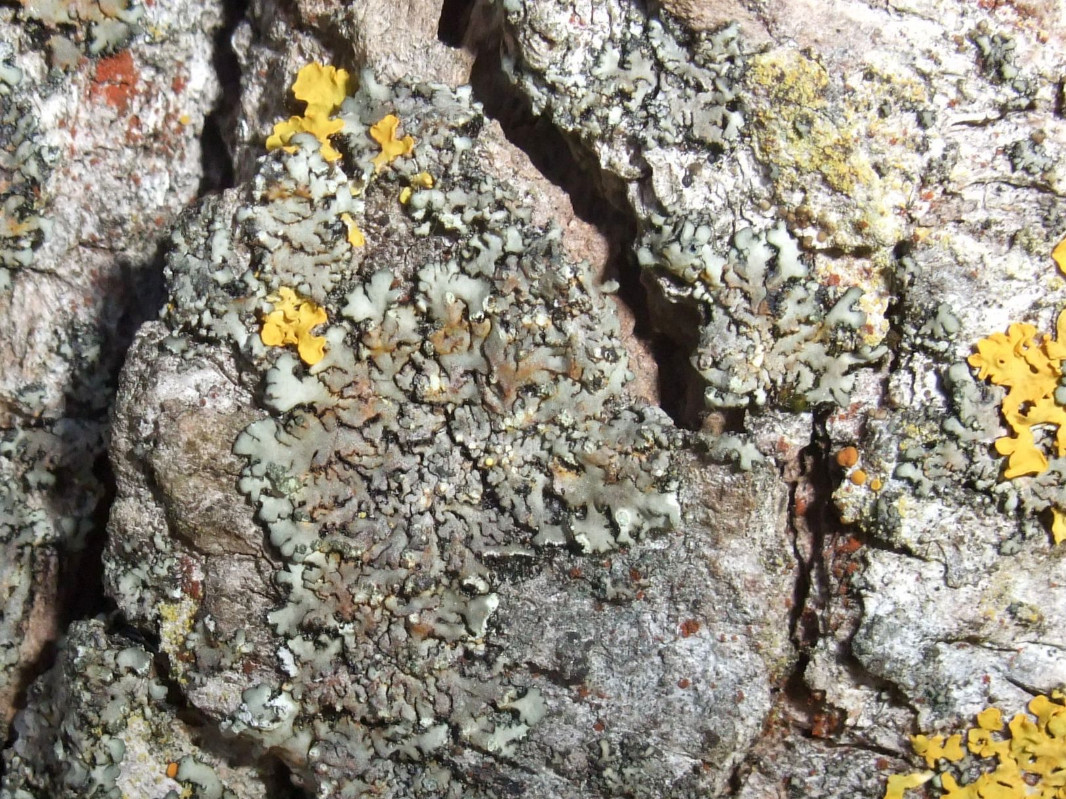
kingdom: Fungi
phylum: Ascomycota
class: Lecanoromycetes
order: Caliciales
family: Physciaceae
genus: Phaeophyscia
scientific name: Phaeophyscia orbicularis
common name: grågrøn rosetlav
